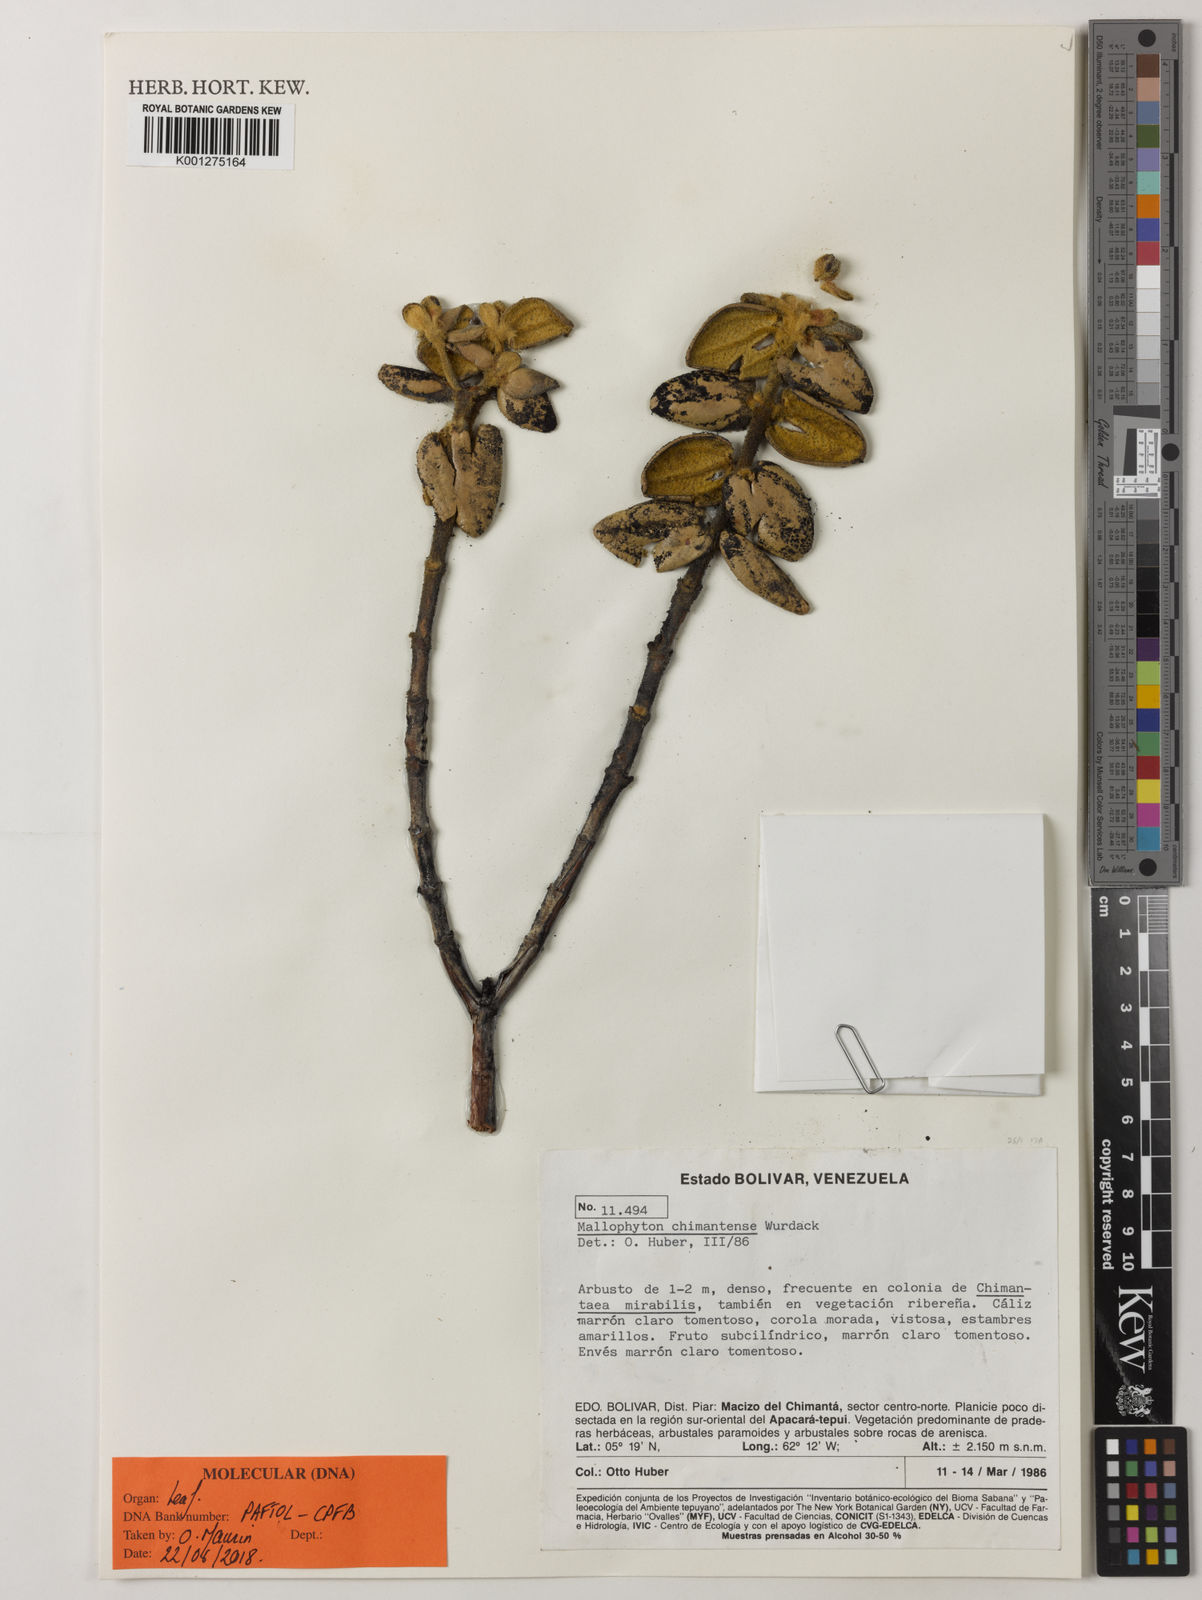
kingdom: Plantae
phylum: Tracheophyta
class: Magnoliopsida
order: Myrtales
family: Melastomataceae
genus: Mallophyton
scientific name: Mallophyton chimantense
